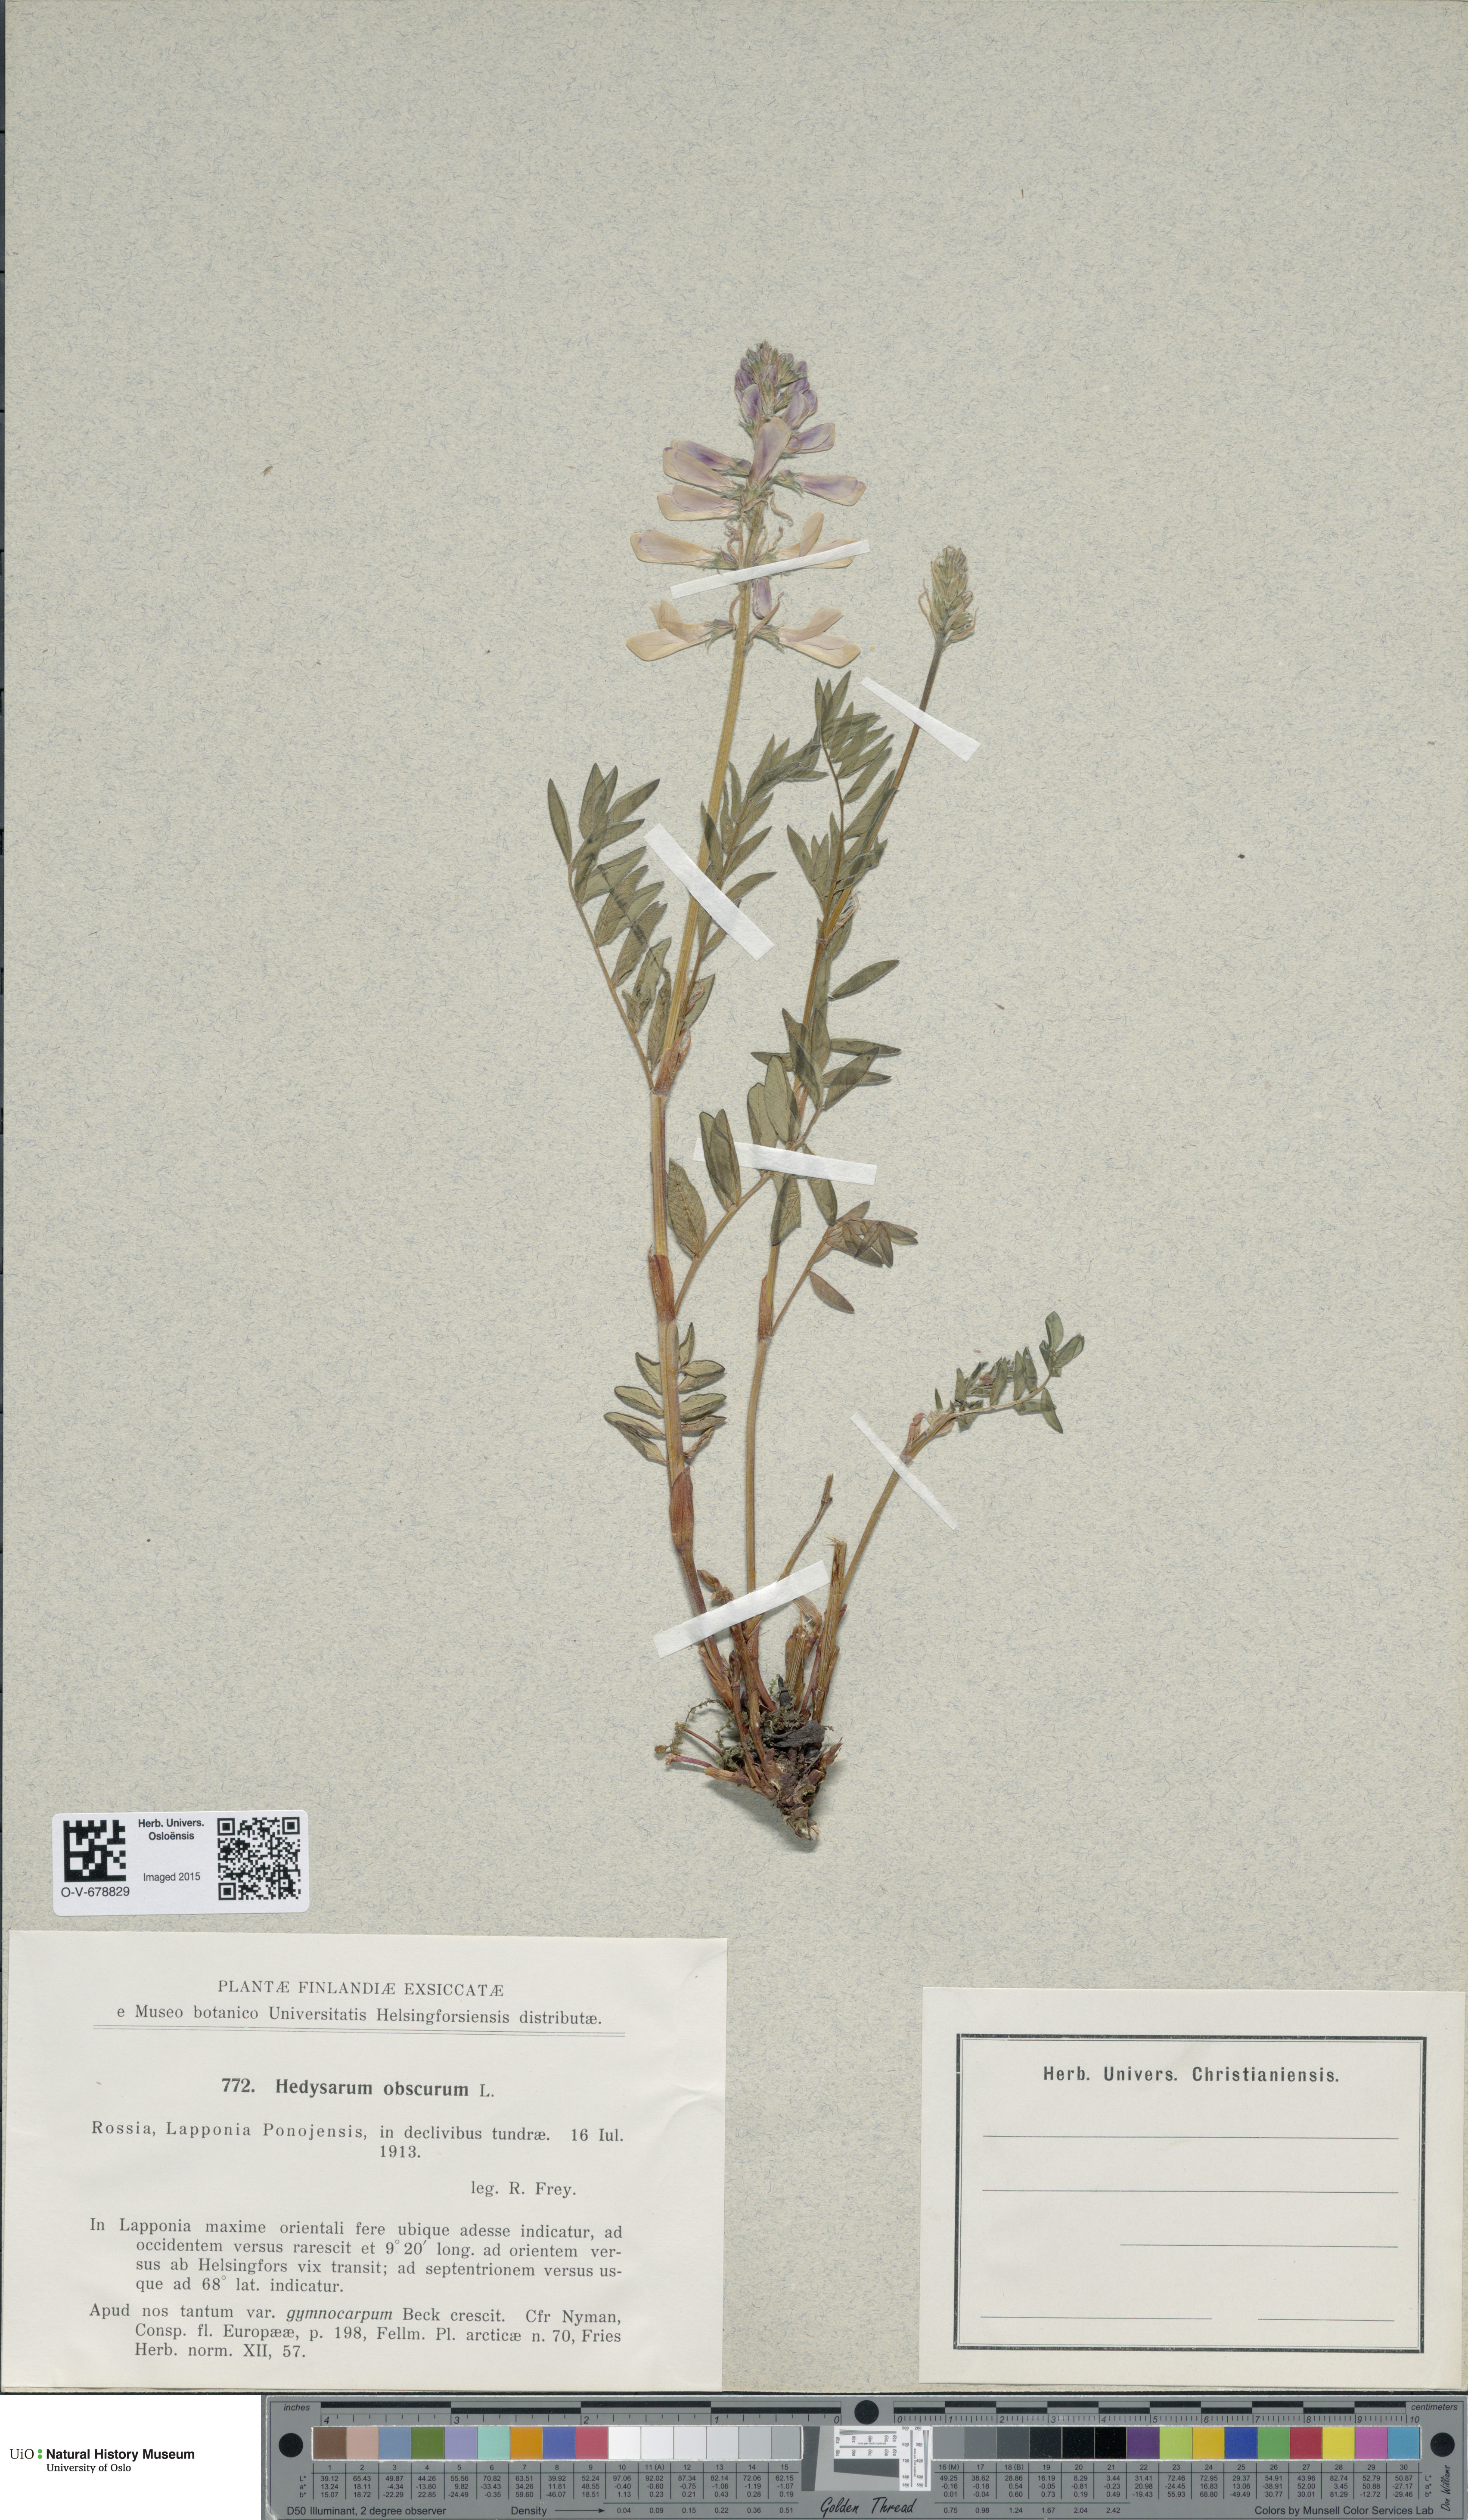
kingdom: Plantae
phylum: Tracheophyta
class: Magnoliopsida
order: Fabales
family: Fabaceae
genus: Hedysarum
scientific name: Hedysarum hedysaroides
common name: Alpine french-honeysuckle
